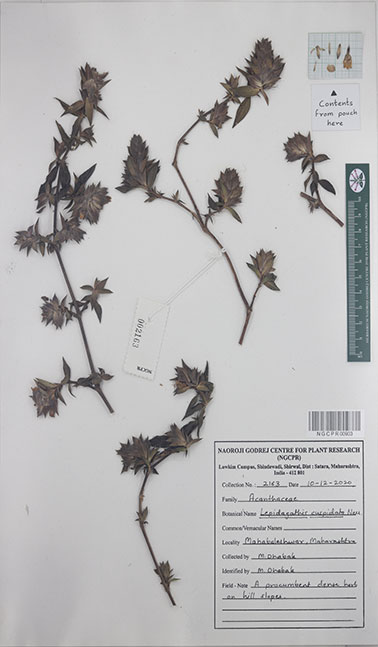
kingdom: Plantae
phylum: Tracheophyta
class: Magnoliopsida
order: Lamiales
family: Acanthaceae
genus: Lepidagathis
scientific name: Lepidagathis cuspidata
